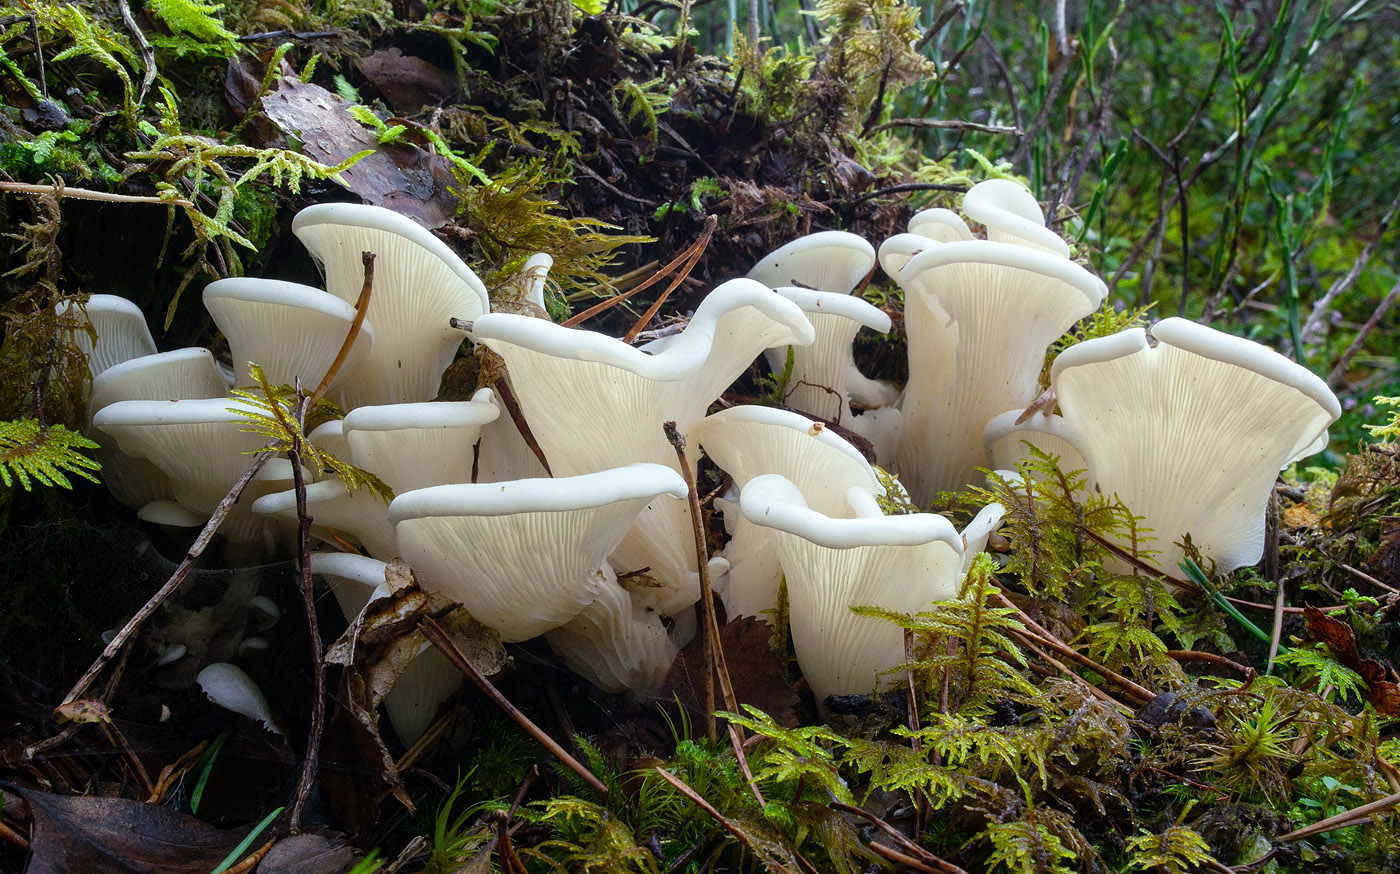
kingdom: Fungi
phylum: Basidiomycota
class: Agaricomycetes
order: Agaricales
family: Marasmiaceae
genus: Pleurocybella
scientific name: Pleurocybella porrigens
